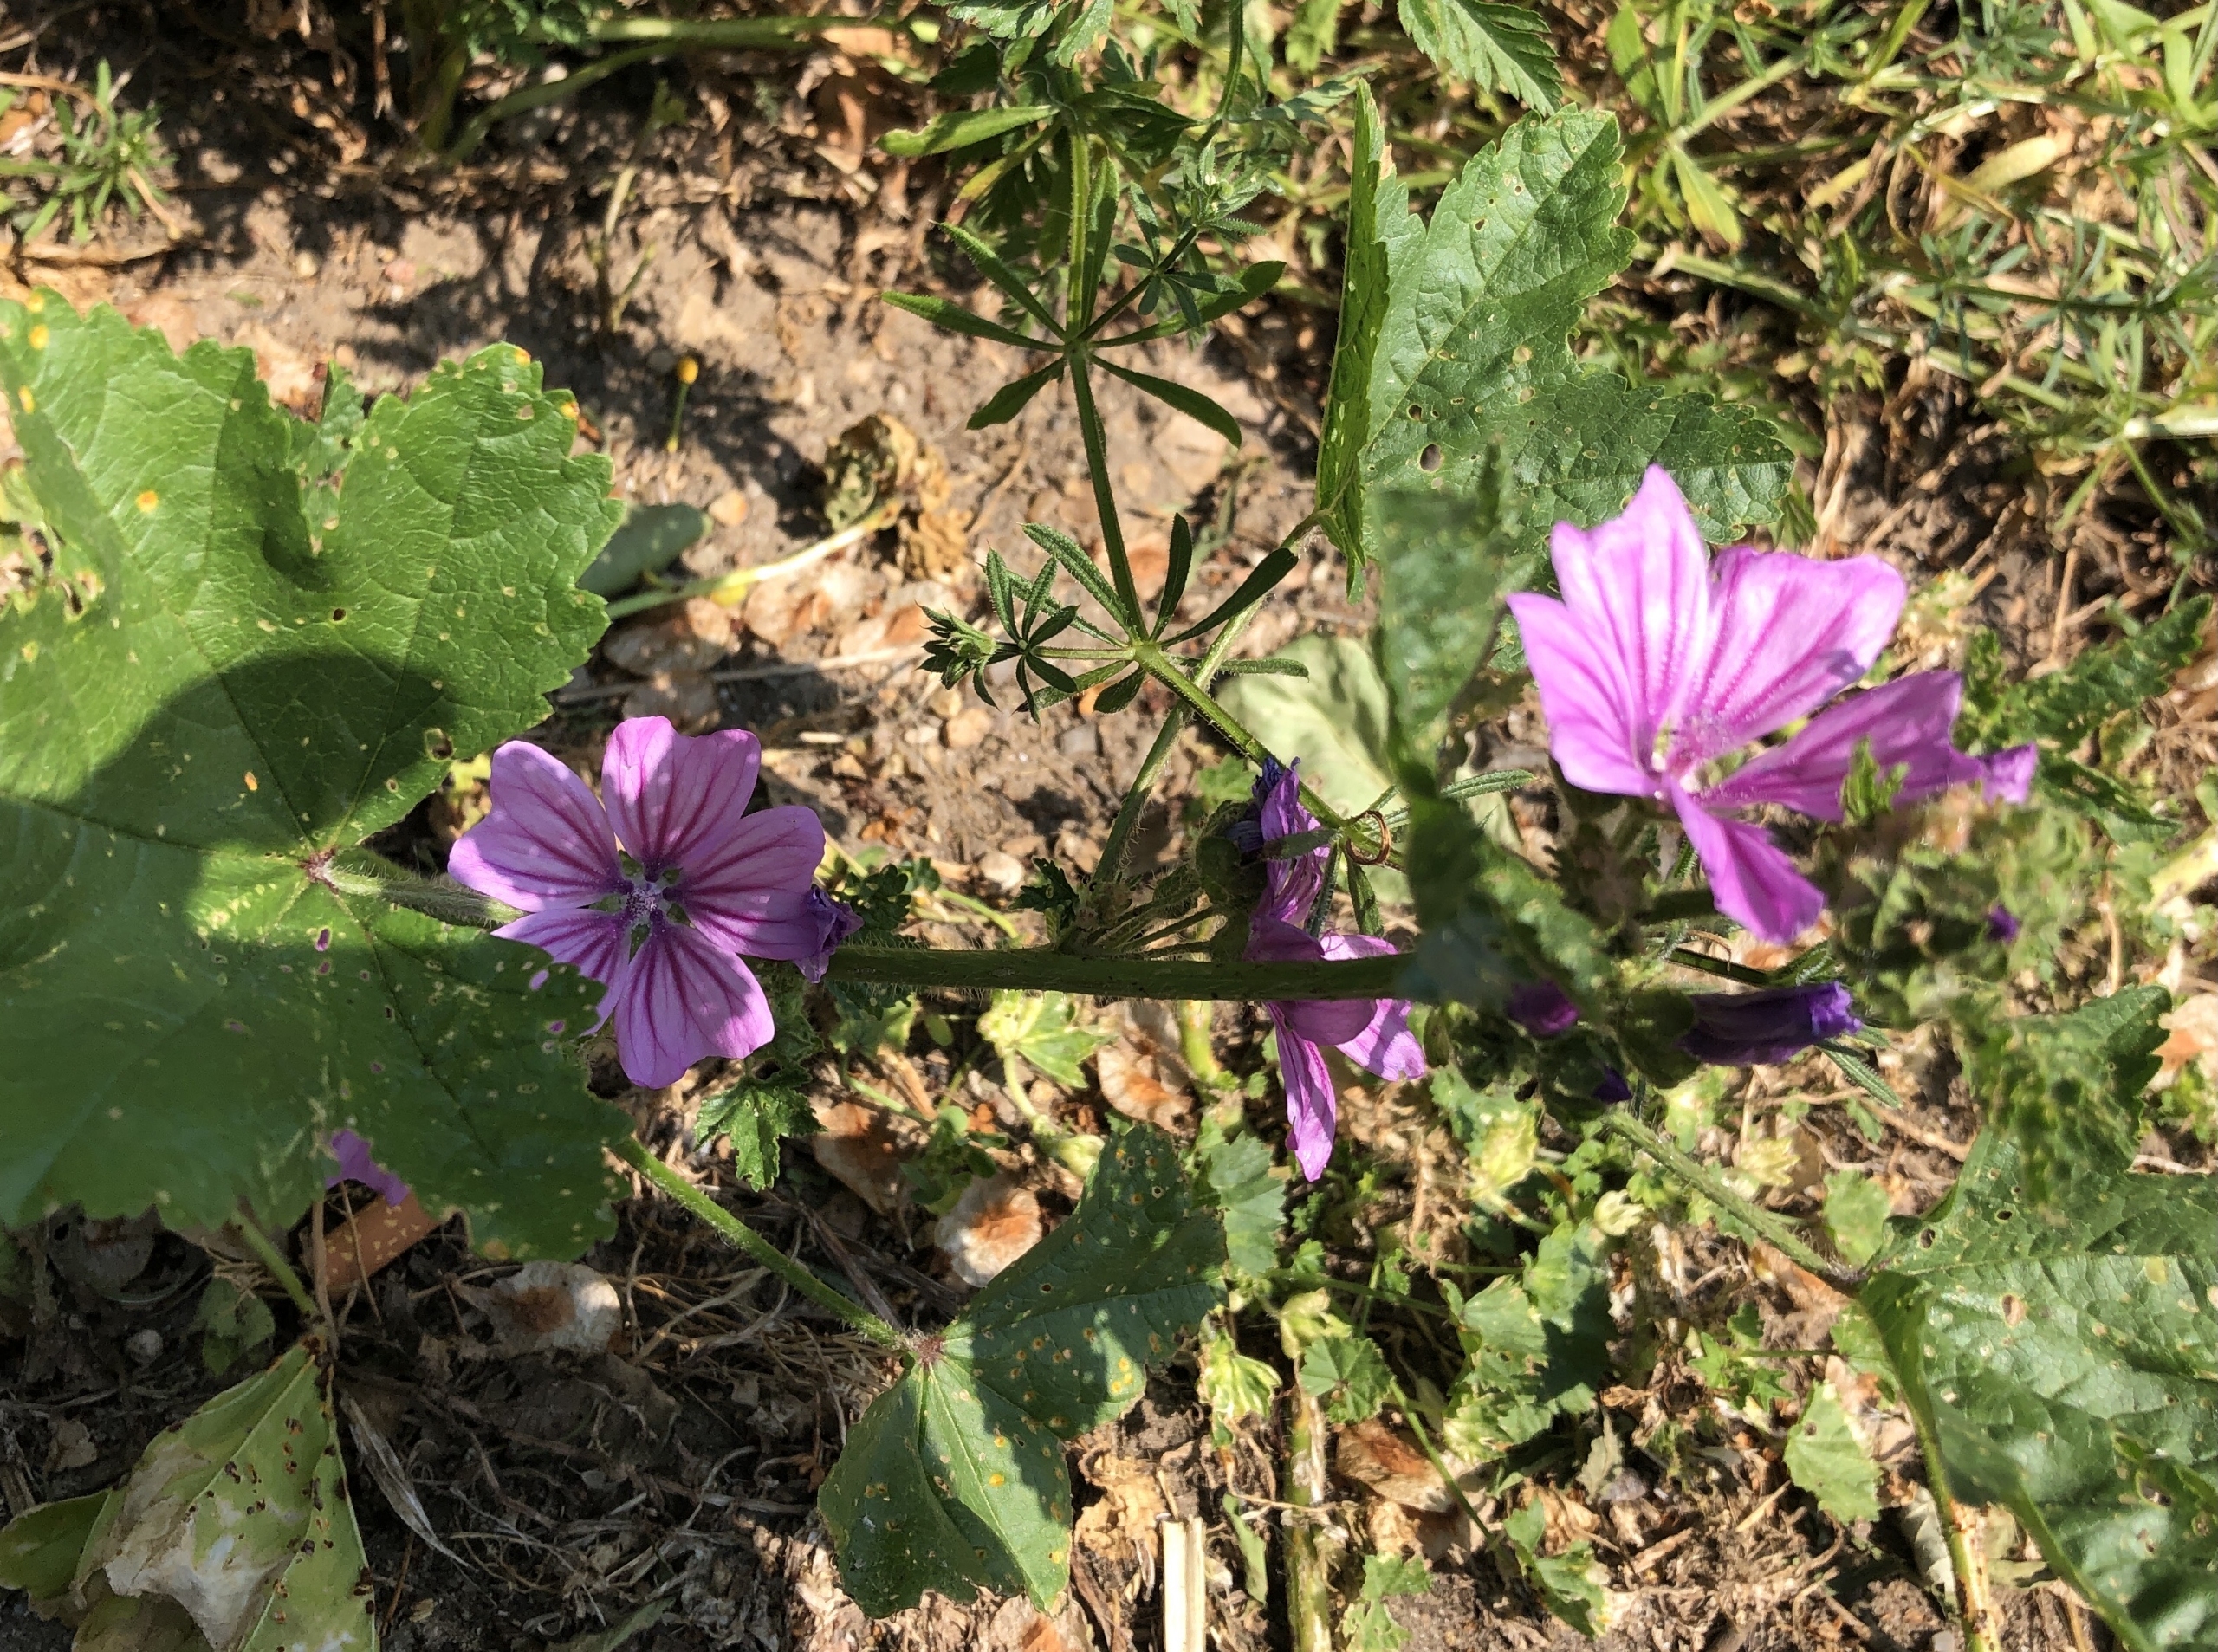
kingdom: Plantae
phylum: Tracheophyta
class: Magnoliopsida
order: Malvales
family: Malvaceae
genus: Malva
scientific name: Malva sylvestris
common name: Almindelig katost
